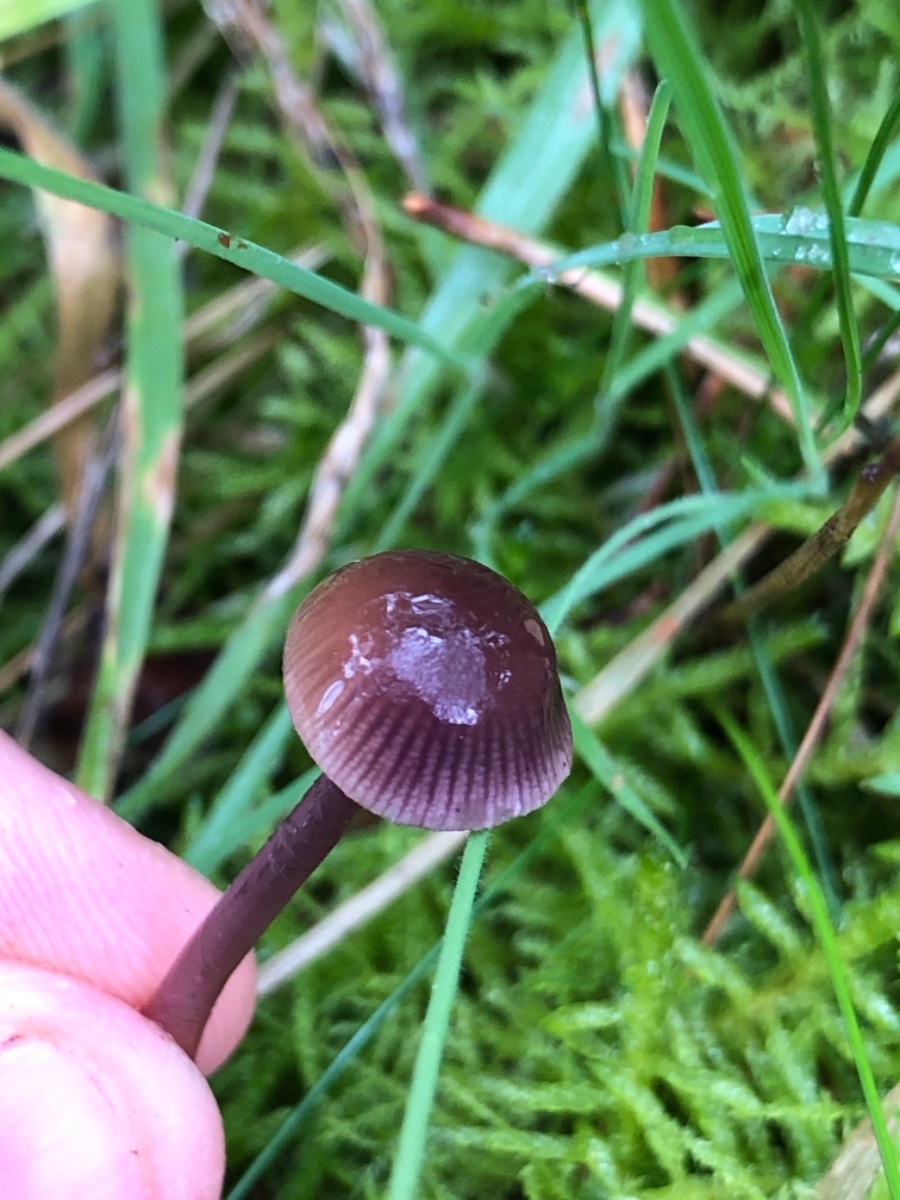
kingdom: Fungi
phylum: Basidiomycota
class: Agaricomycetes
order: Agaricales
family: Mycenaceae
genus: Mycena
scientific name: Mycena pearsoniana
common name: lillabrun huesvamp
